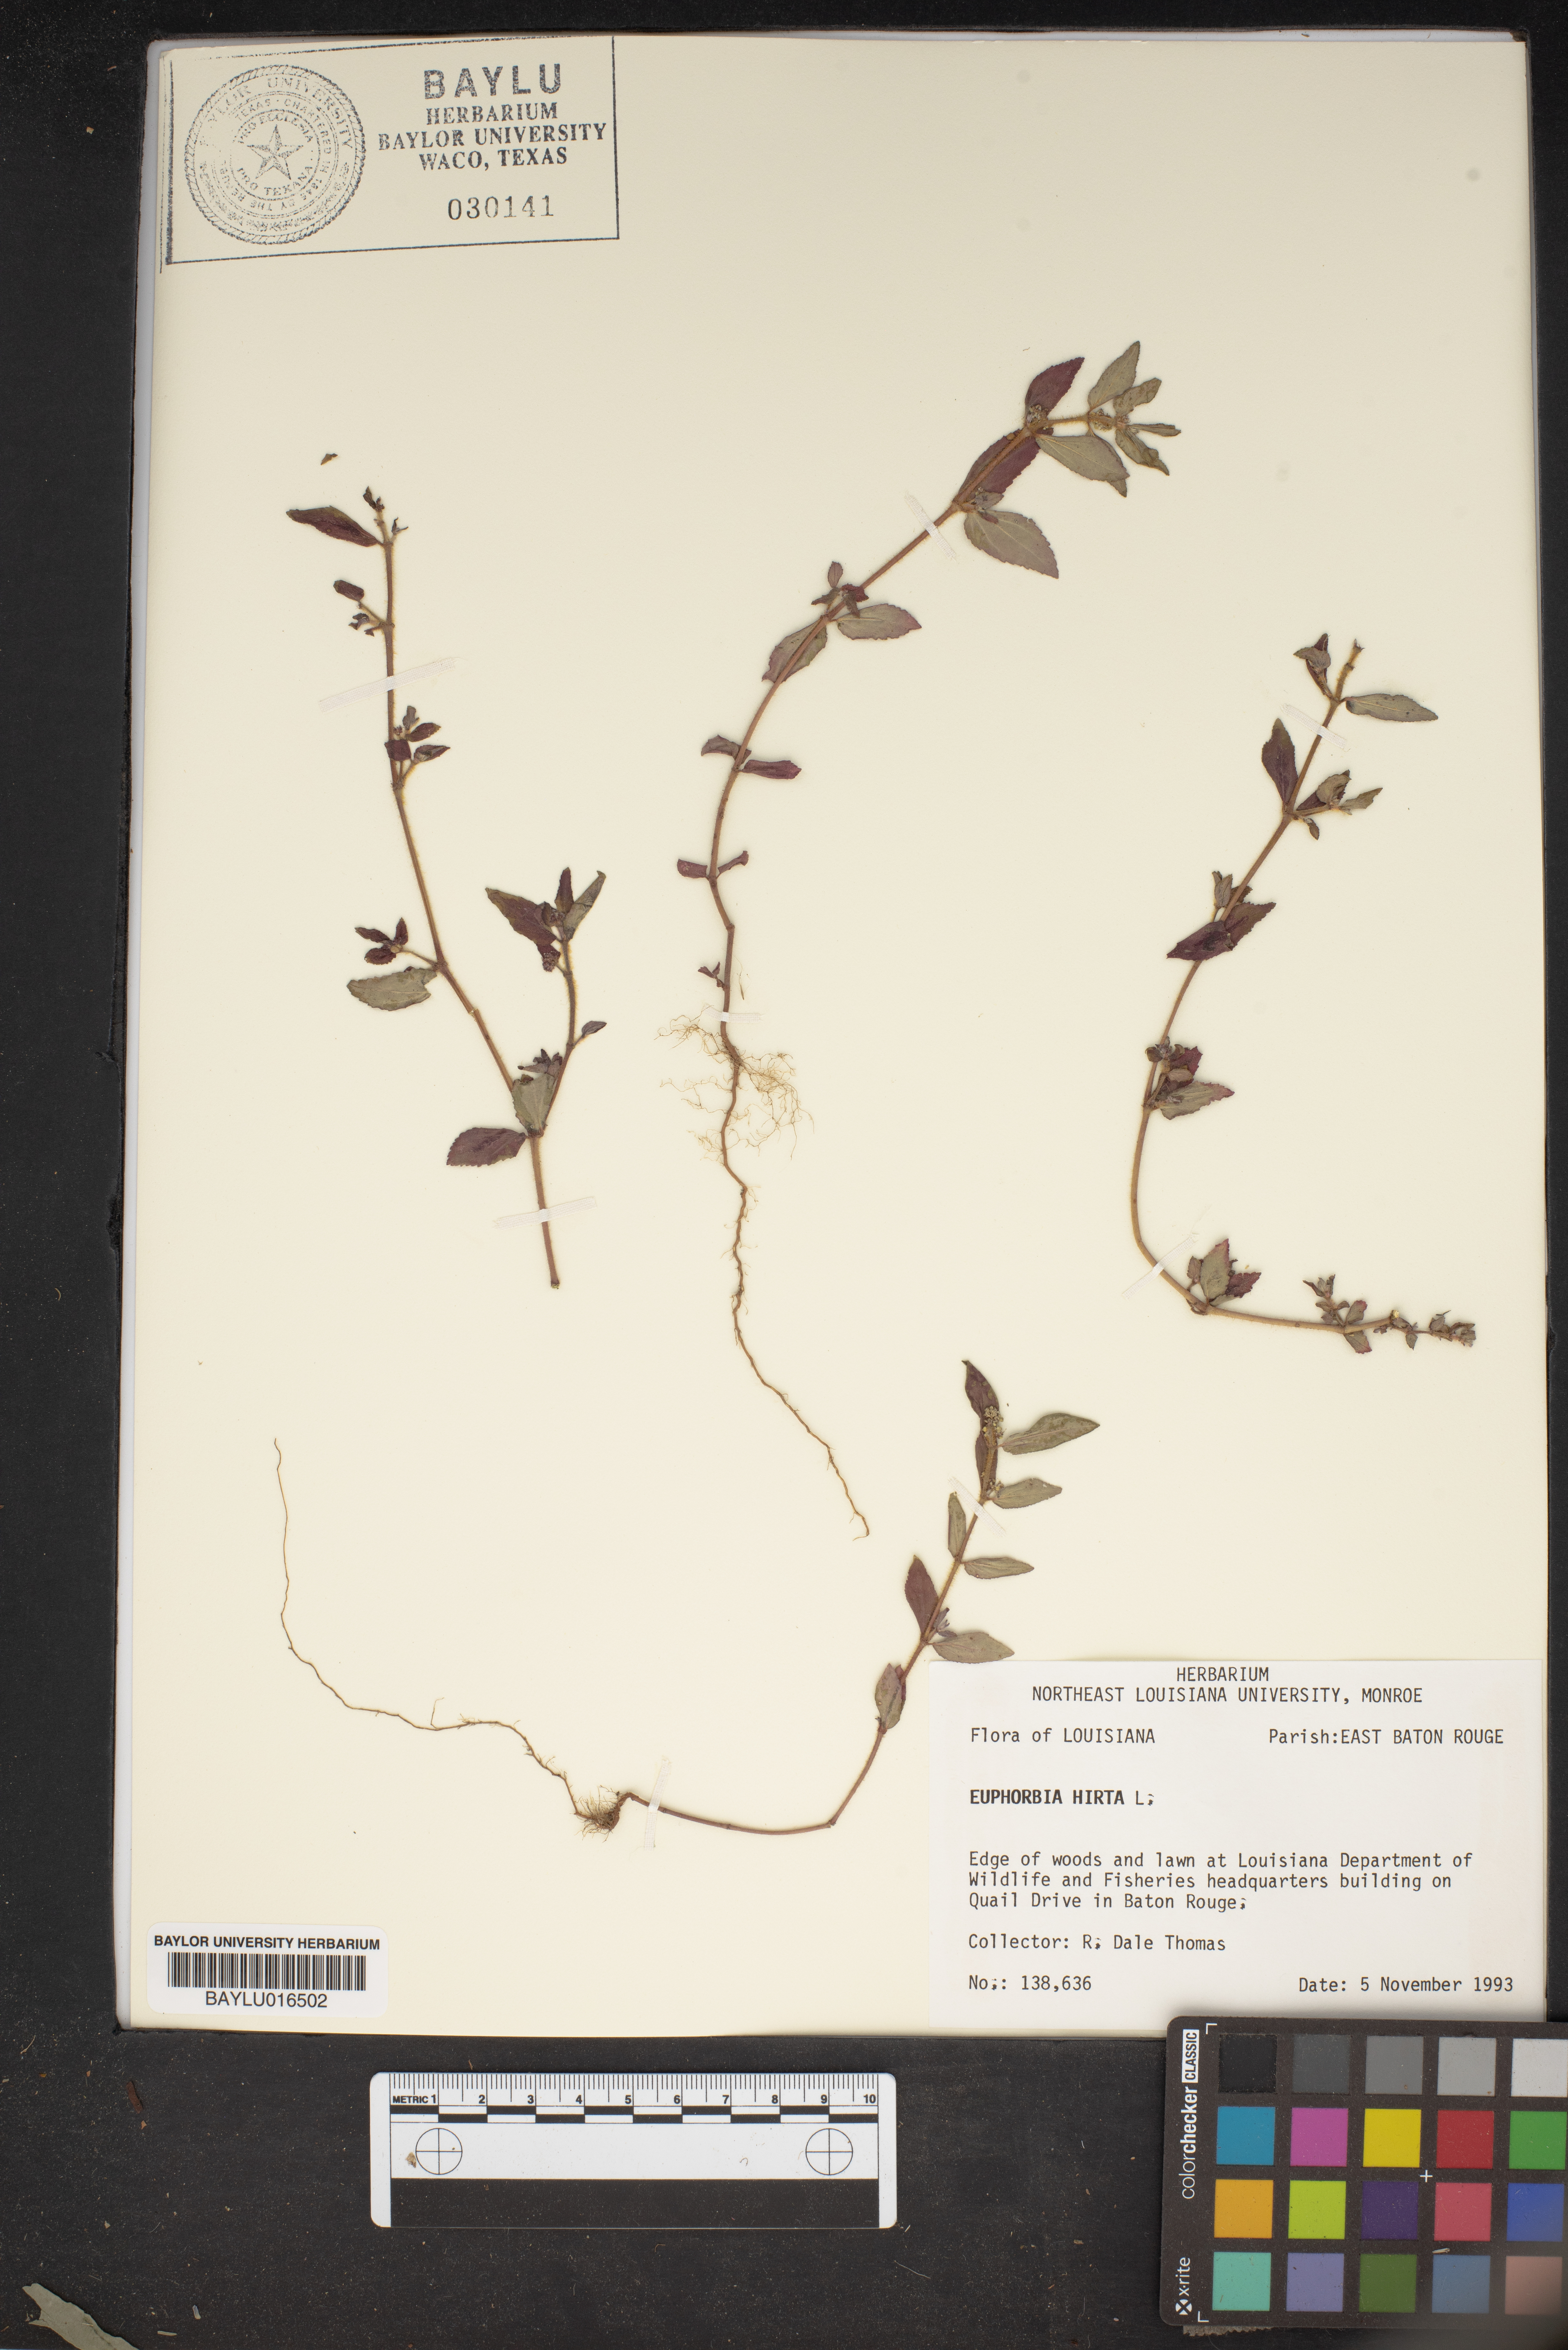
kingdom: Plantae
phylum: Tracheophyta
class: Magnoliopsida
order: Malpighiales
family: Euphorbiaceae
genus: Euphorbia
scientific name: Euphorbia hirta
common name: Pillpod sandmat
